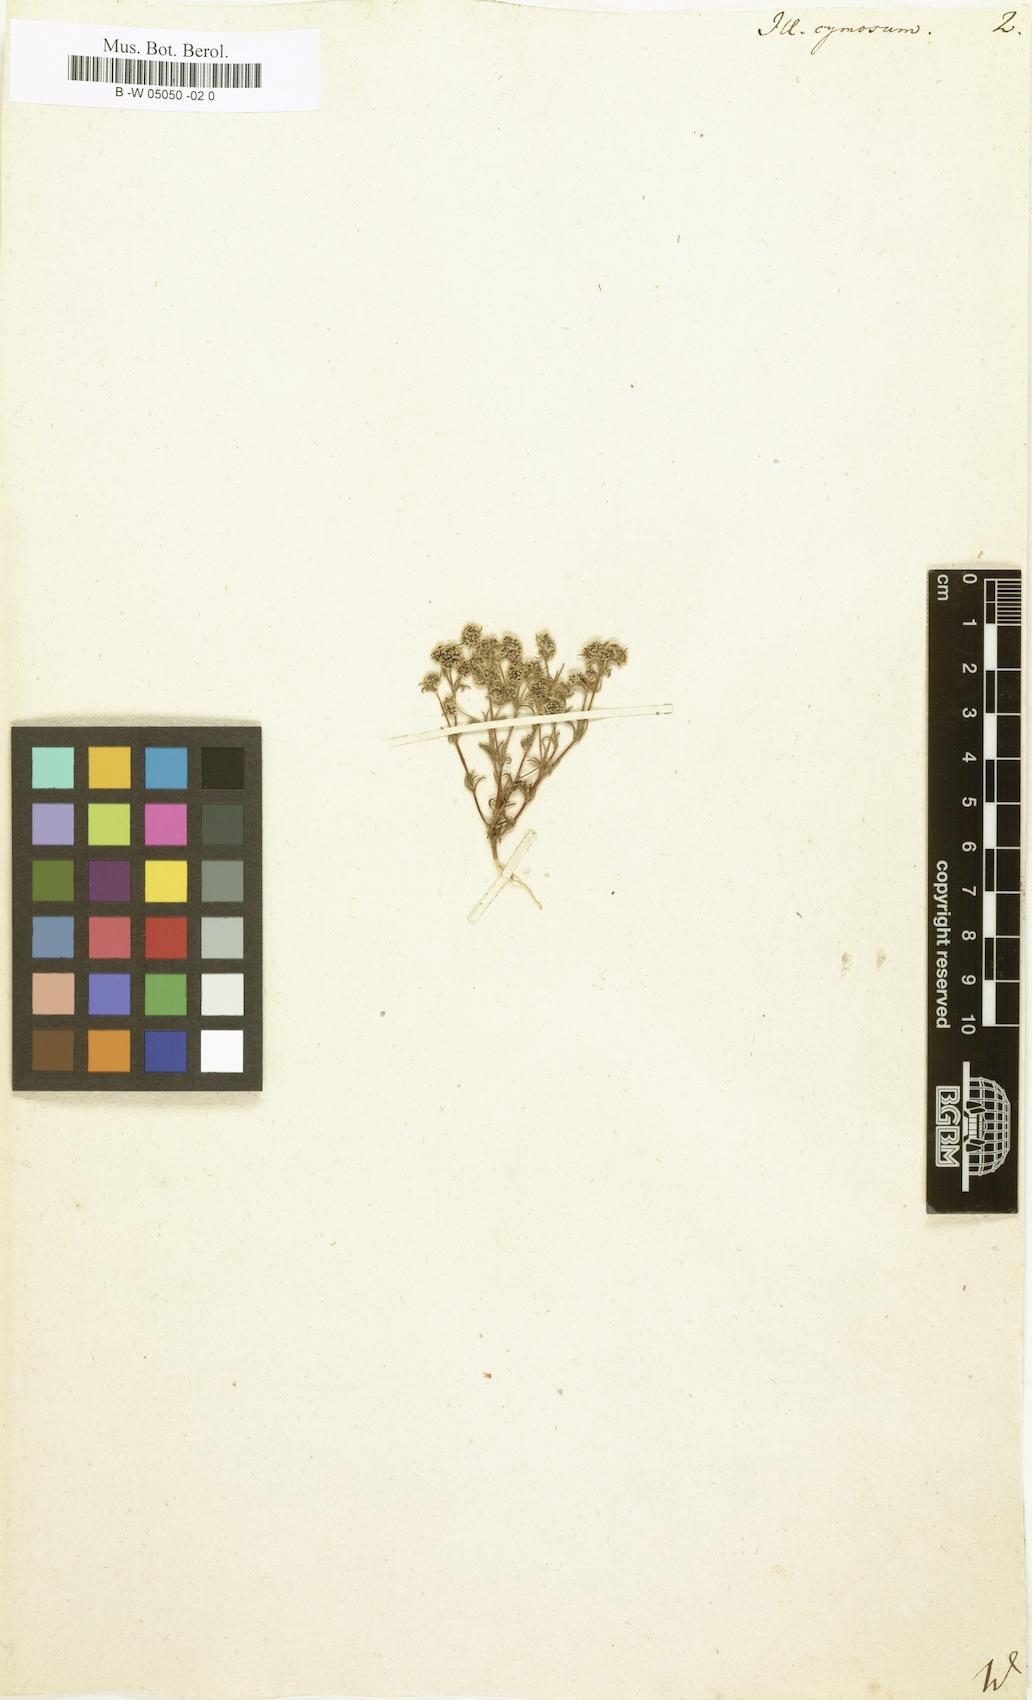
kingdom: Plantae
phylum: Tracheophyta
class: Magnoliopsida
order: Caryophyllales
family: Caryophyllaceae
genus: Chaetonychia
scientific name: Chaetonychia cymosa
